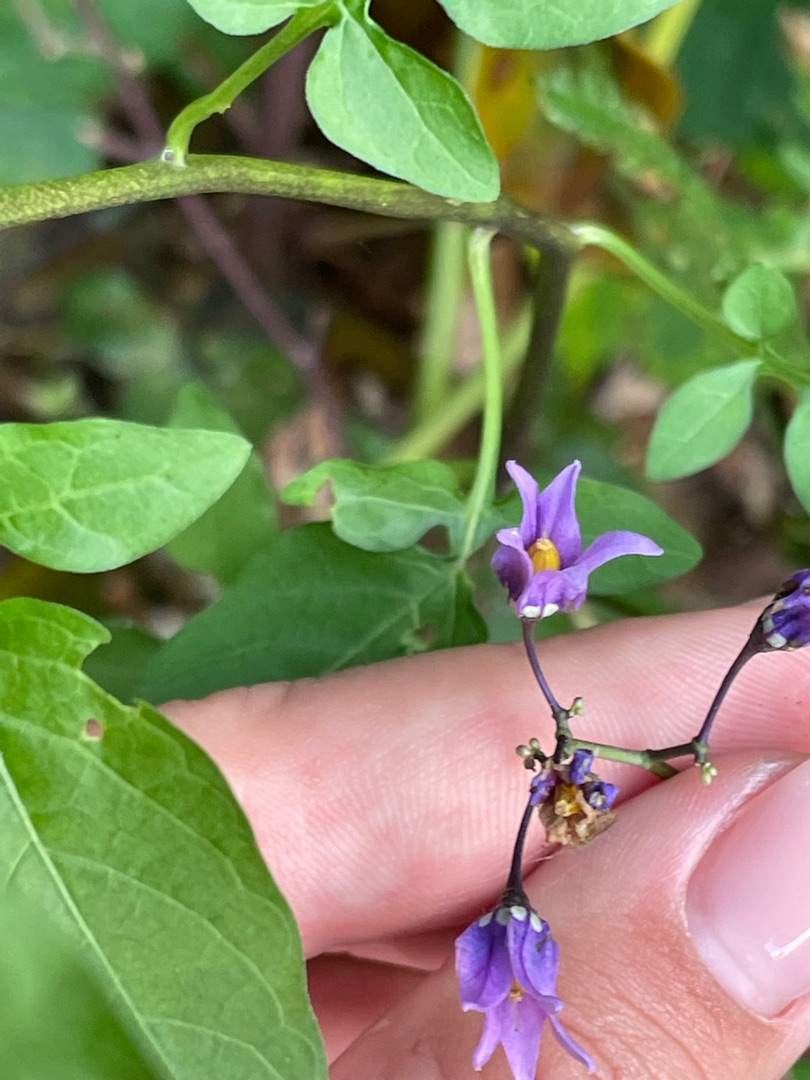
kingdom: Plantae
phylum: Tracheophyta
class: Magnoliopsida
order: Solanales
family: Solanaceae
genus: Solanum
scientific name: Solanum dulcamara
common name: Bittersød natskygge
